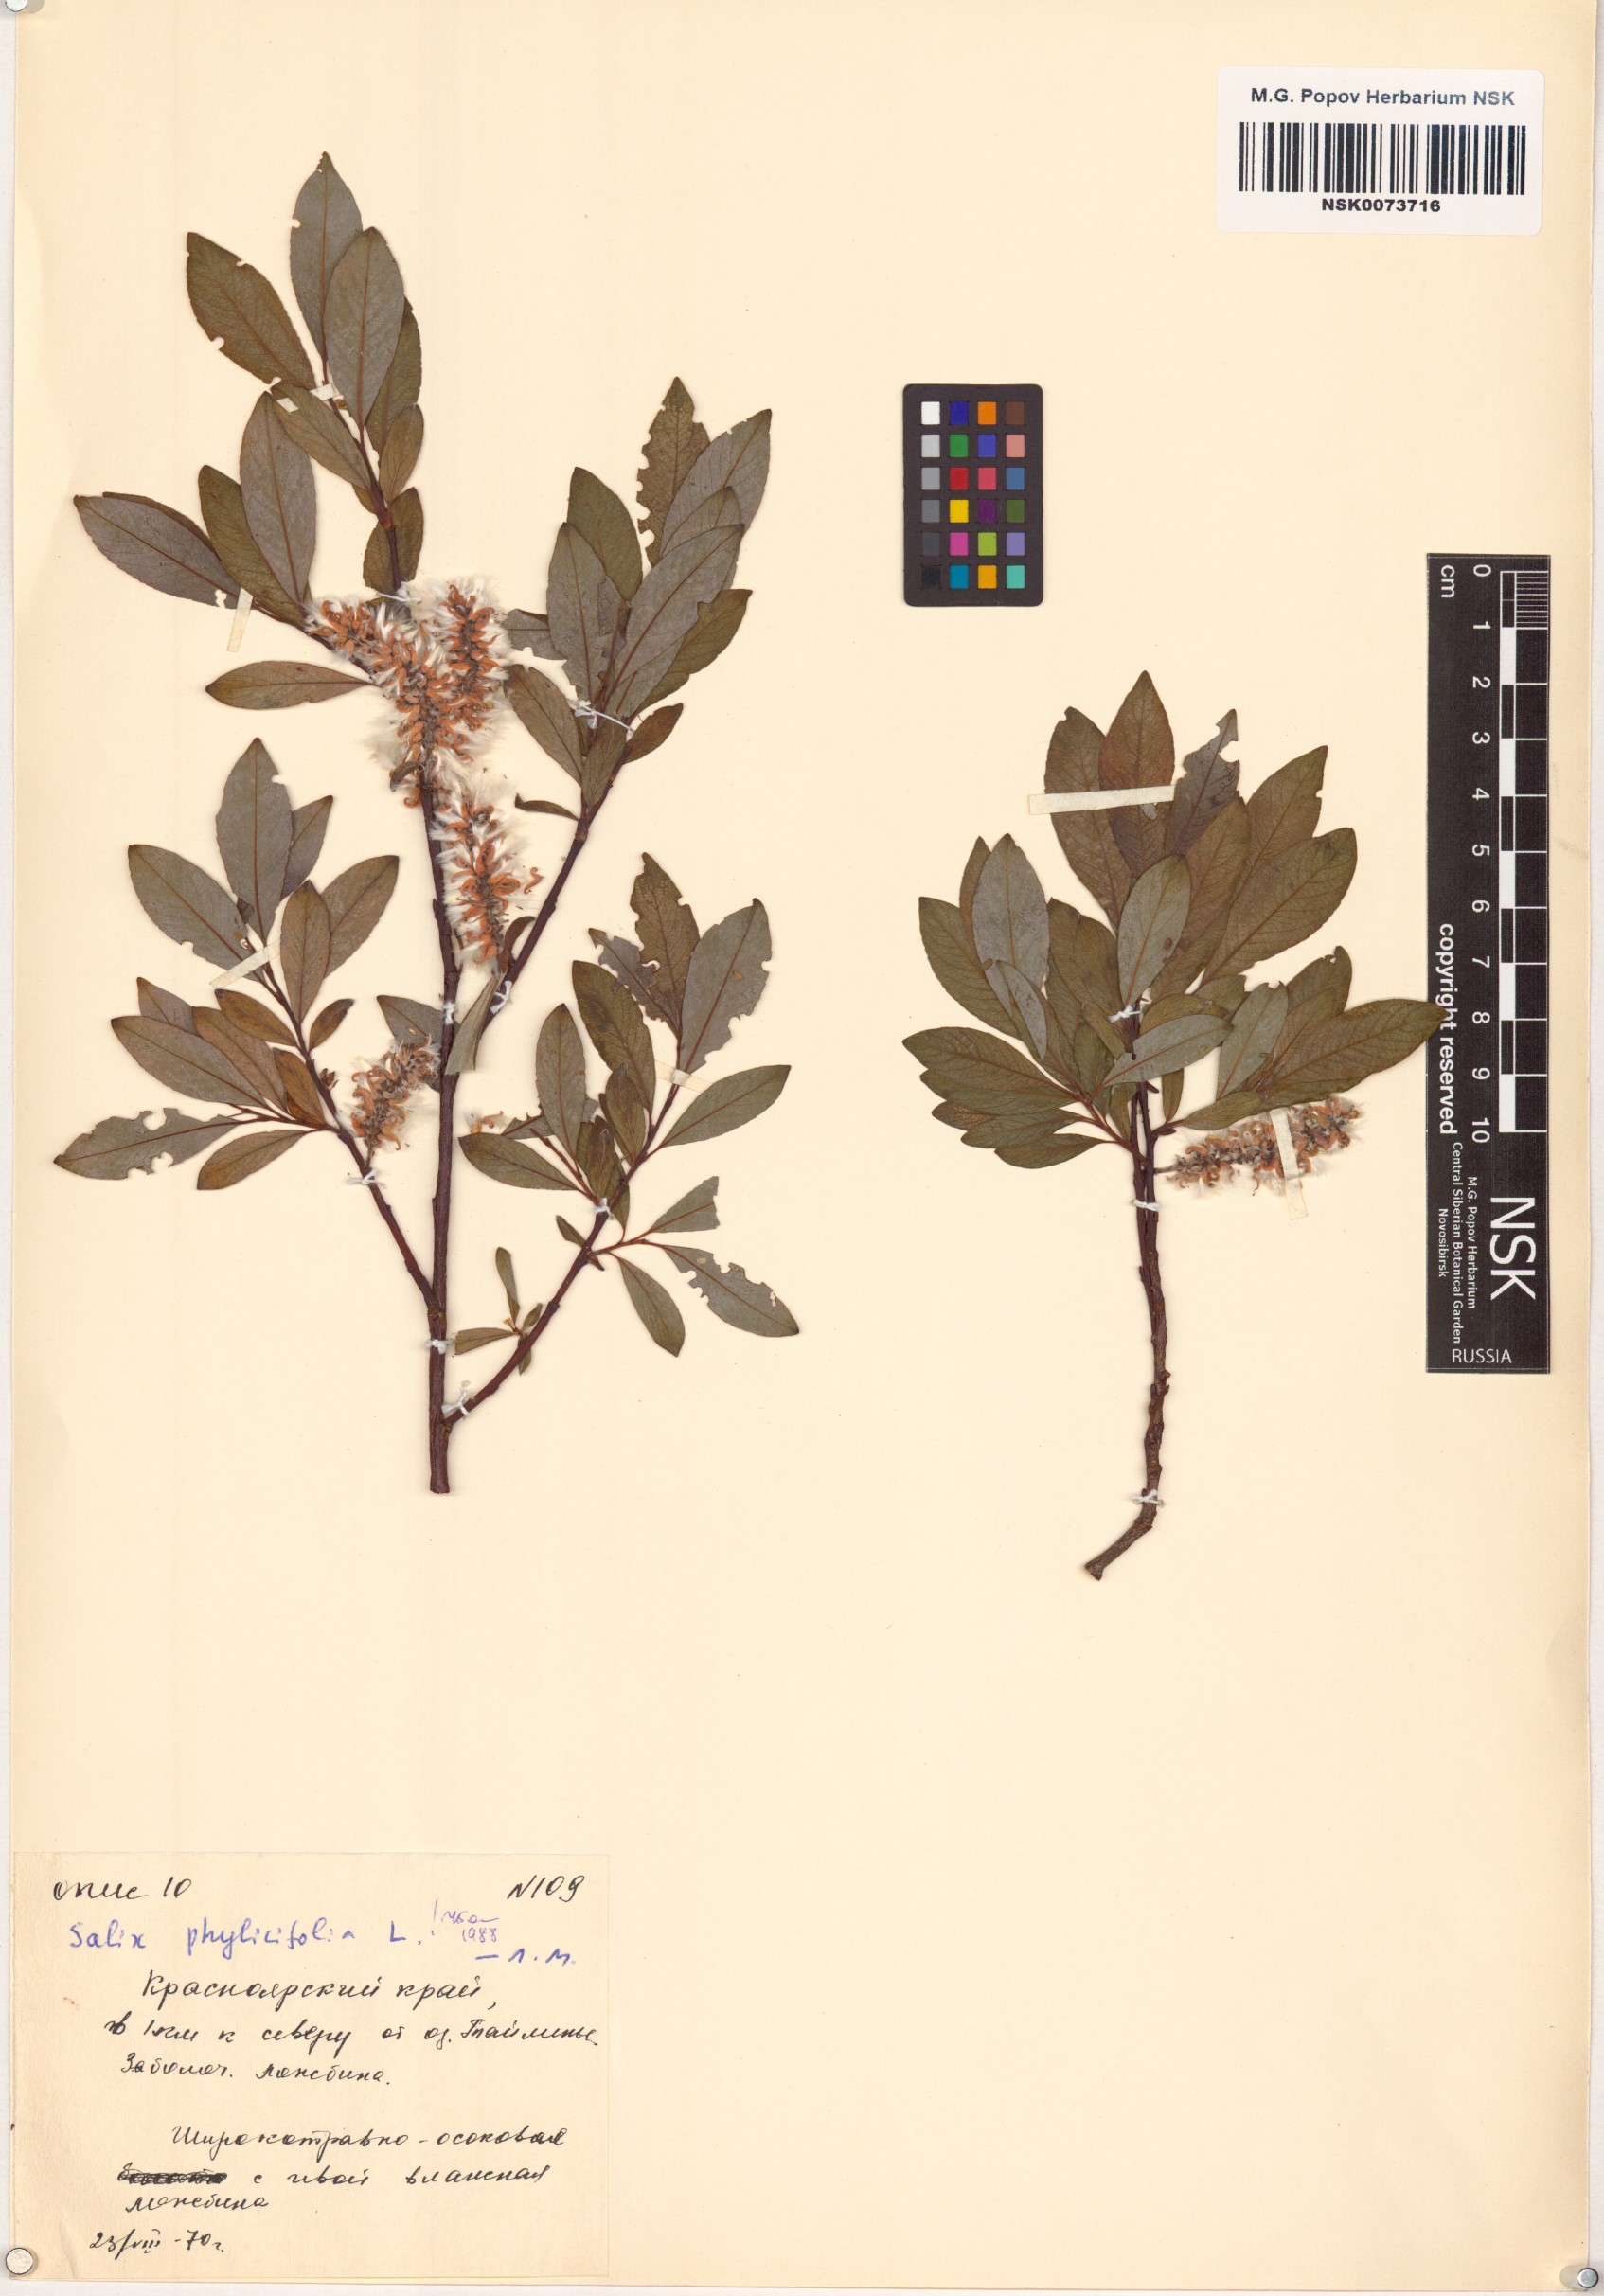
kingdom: Plantae
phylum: Tracheophyta
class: Magnoliopsida
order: Malpighiales
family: Salicaceae
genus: Salix
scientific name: Salix phylicifolia
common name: Tea-leaved willow
